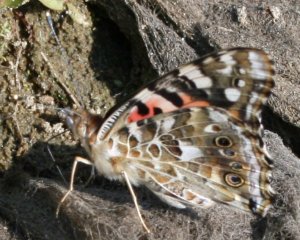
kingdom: Animalia
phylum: Arthropoda
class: Insecta
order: Lepidoptera
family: Nymphalidae
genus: Vanessa
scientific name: Vanessa cardui
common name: Painted Lady
